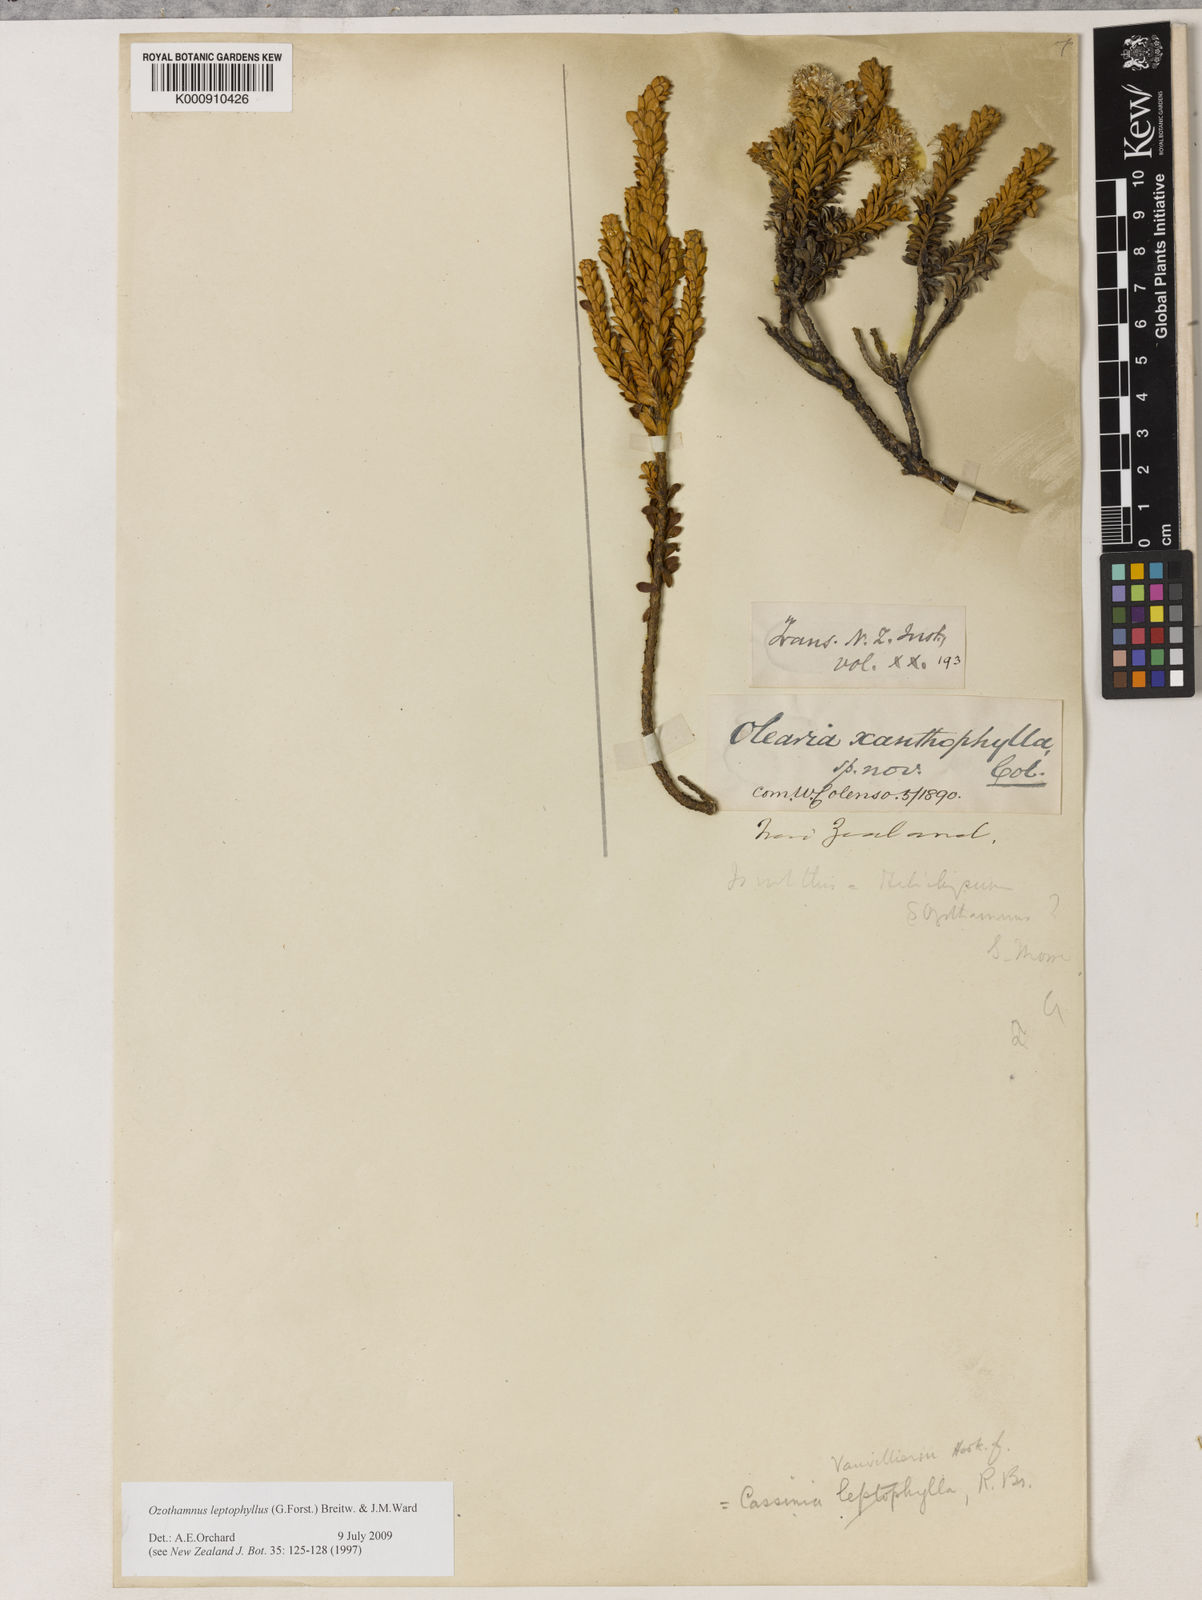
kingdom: Plantae
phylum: Tracheophyta
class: Magnoliopsida
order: Asterales
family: Asteraceae
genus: Ozothamnus
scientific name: Ozothamnus leptophyllus
